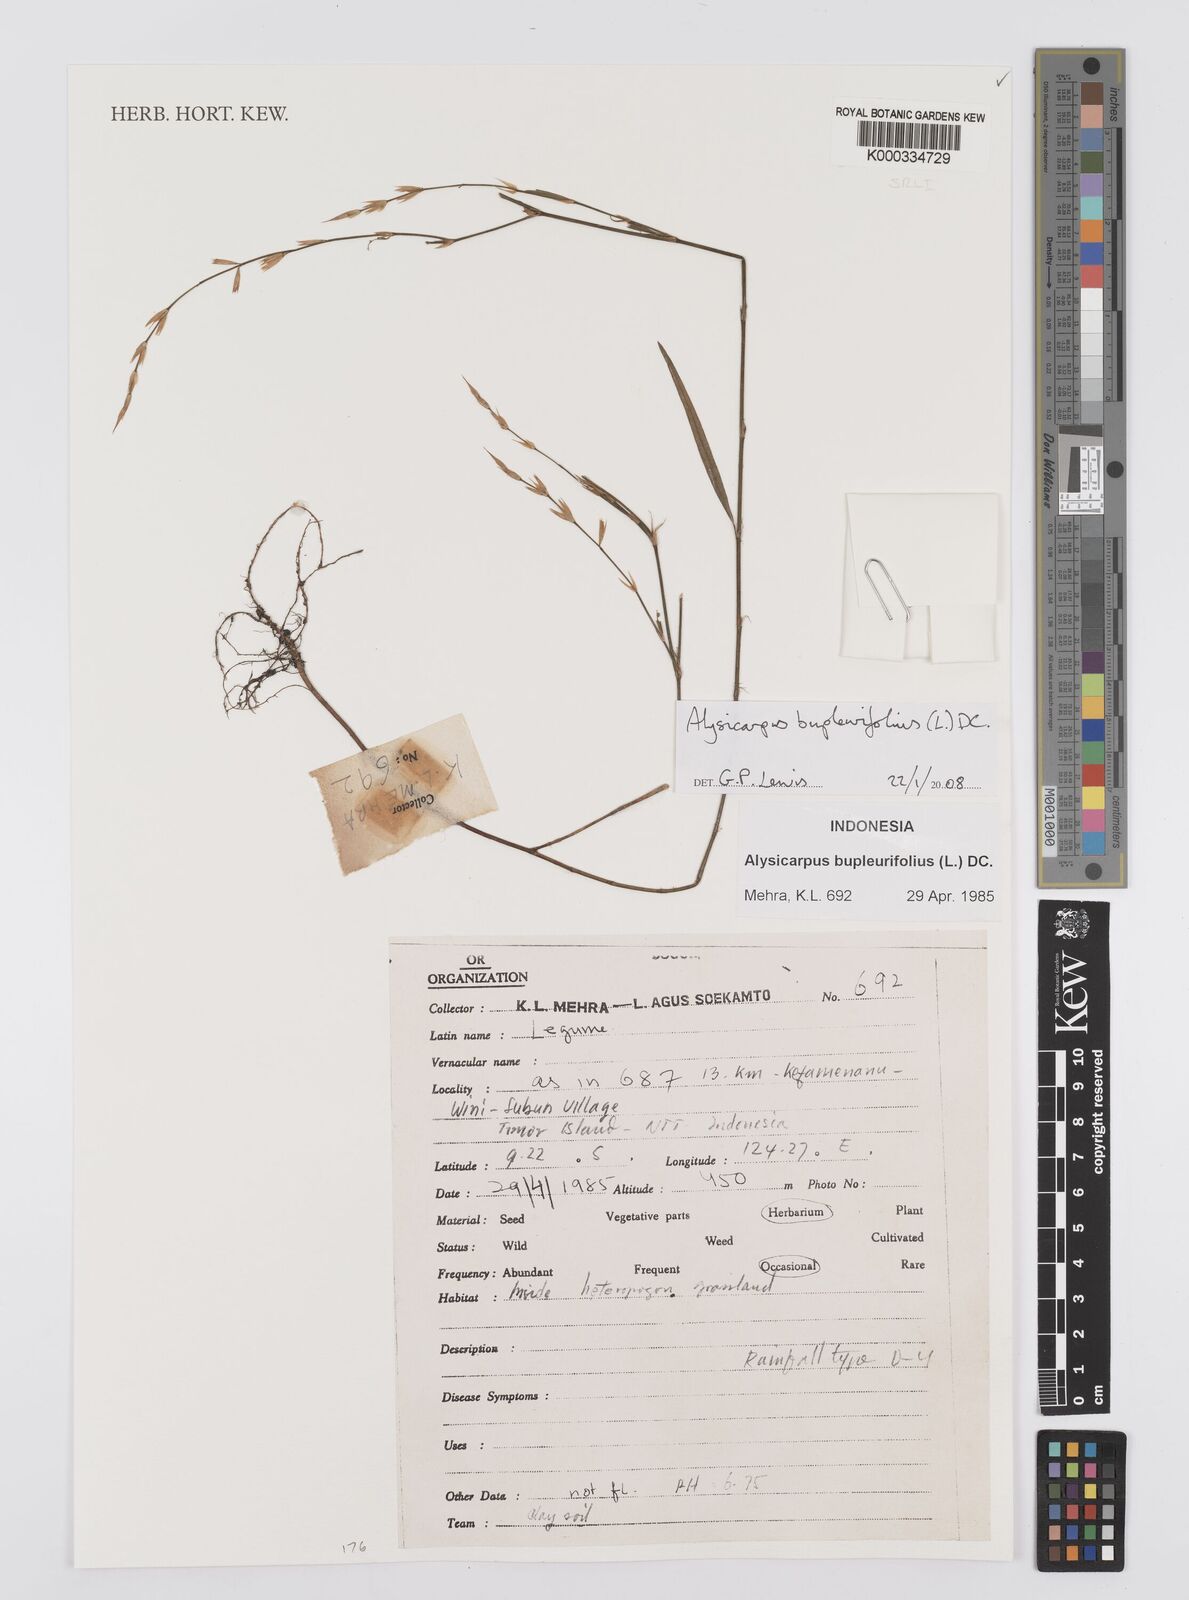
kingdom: Plantae
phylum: Tracheophyta
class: Magnoliopsida
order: Fabales
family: Fabaceae
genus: Alysicarpus
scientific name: Alysicarpus bupleurifolius
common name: Sweet alys
